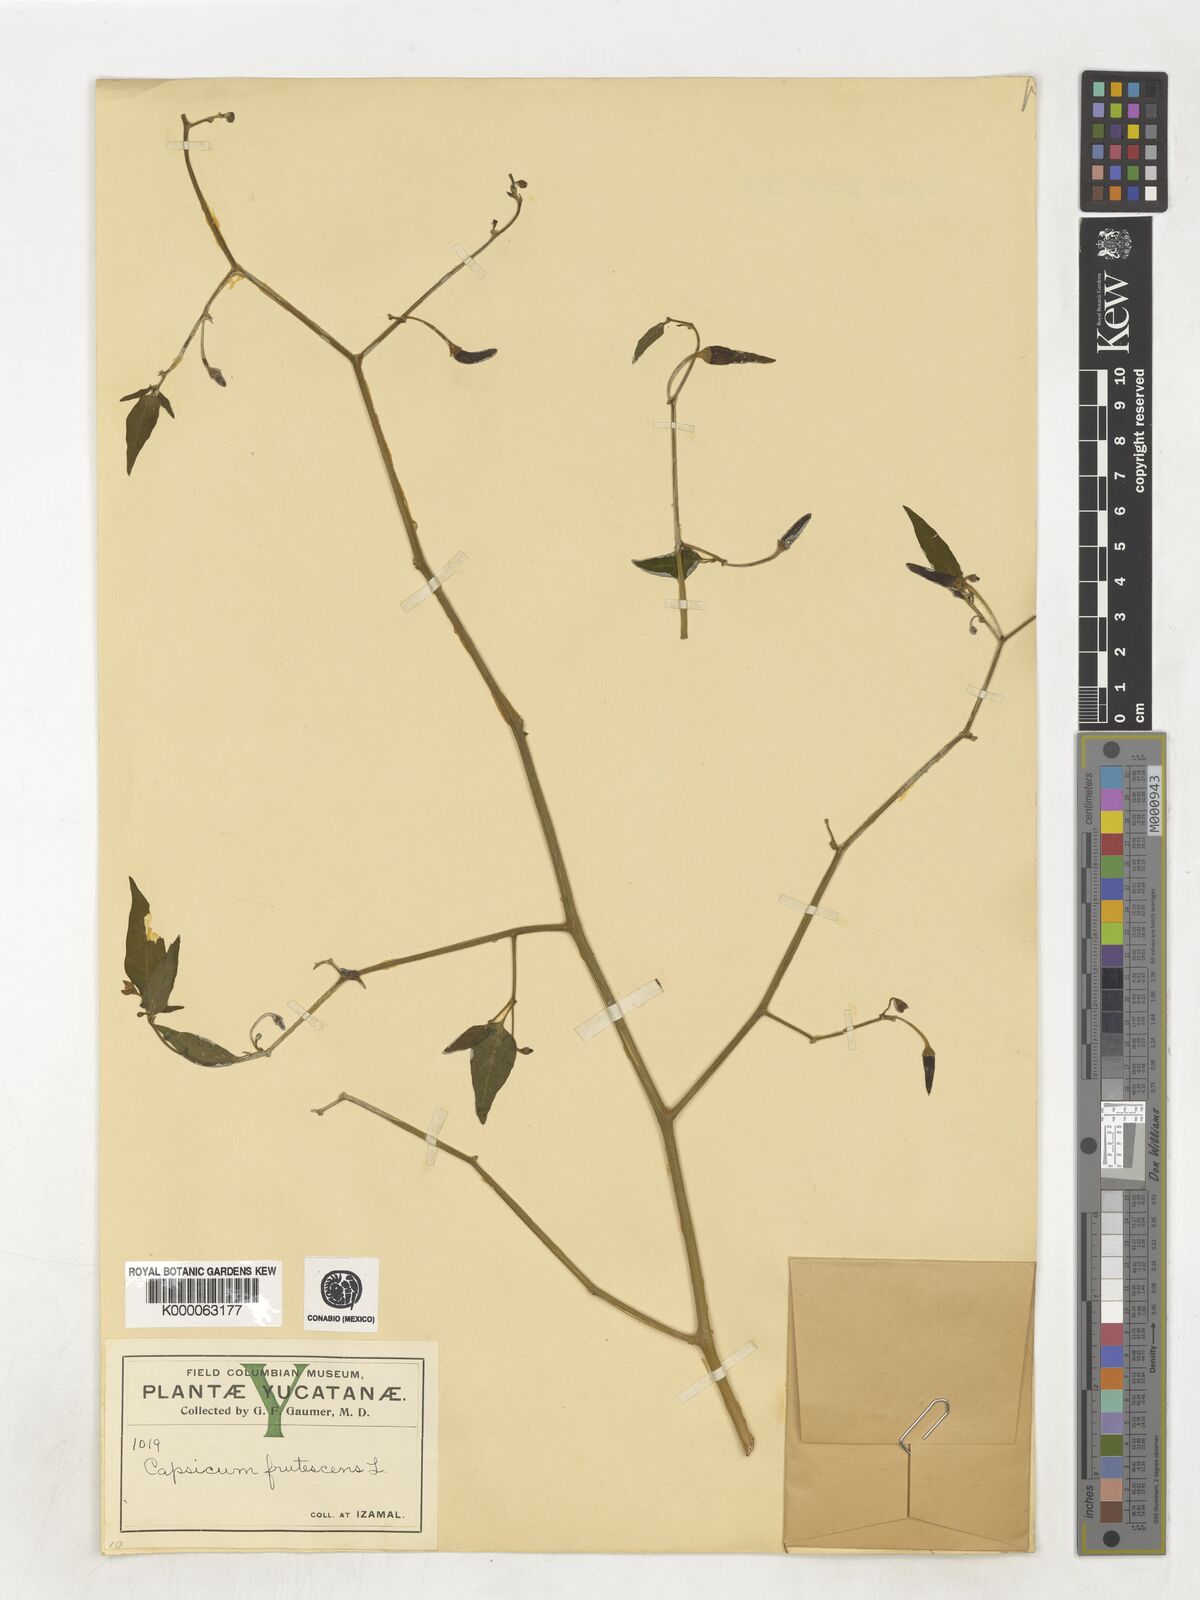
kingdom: Plantae
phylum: Tracheophyta
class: Magnoliopsida
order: Solanales
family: Solanaceae
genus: Capsicum
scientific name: Capsicum frutescens
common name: Bird pepper
